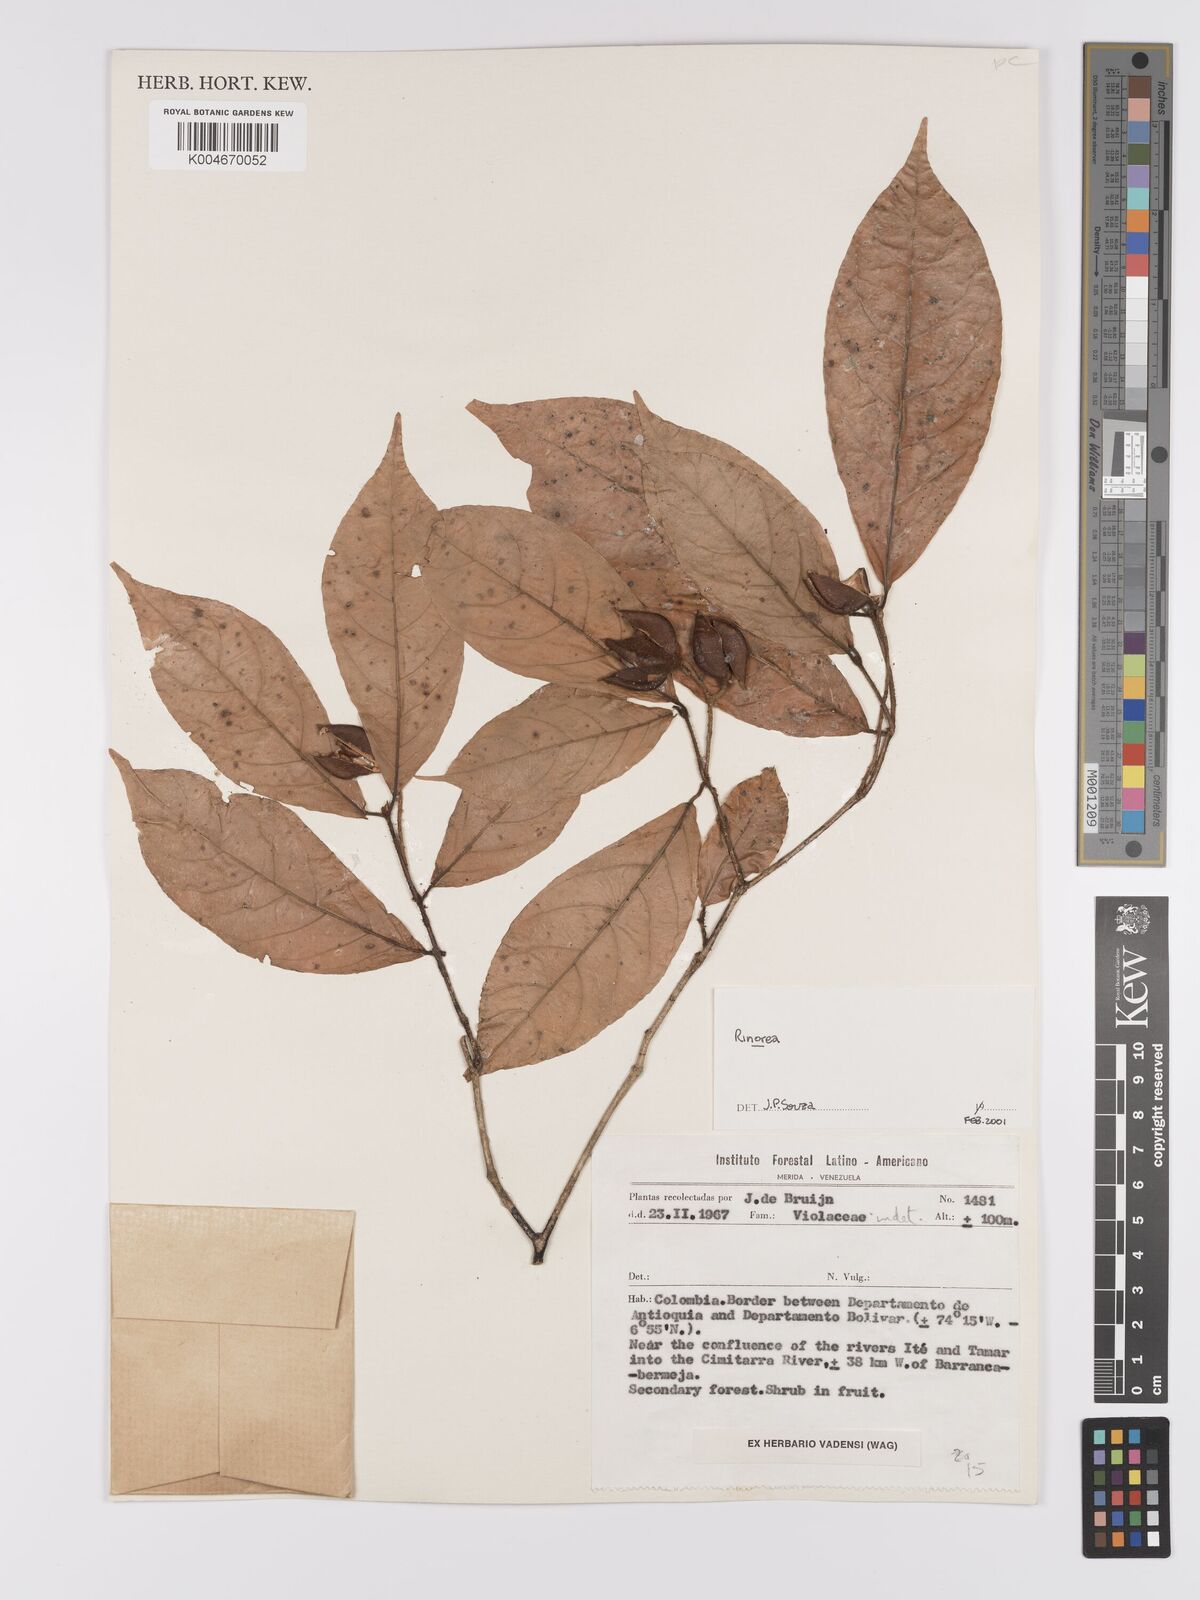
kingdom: Plantae
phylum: Tracheophyta
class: Magnoliopsida
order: Malpighiales
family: Violaceae
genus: Rinorea
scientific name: Rinorea
